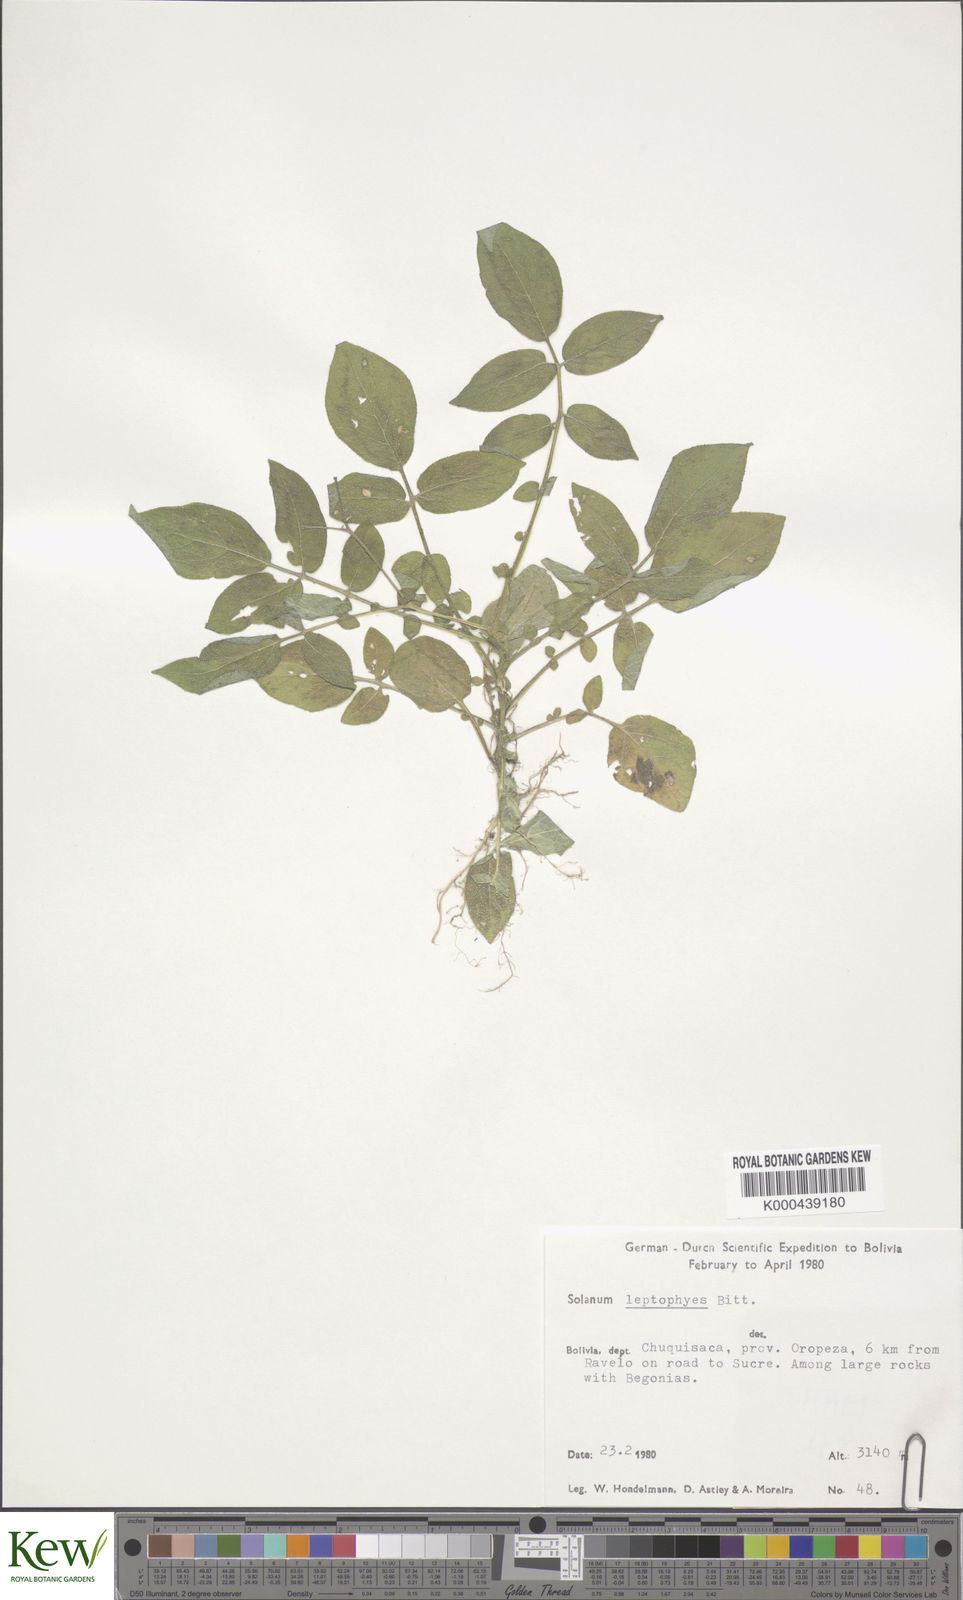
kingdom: Plantae
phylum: Tracheophyta
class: Magnoliopsida
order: Solanales
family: Solanaceae
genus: Solanum
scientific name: Solanum brevicaule
